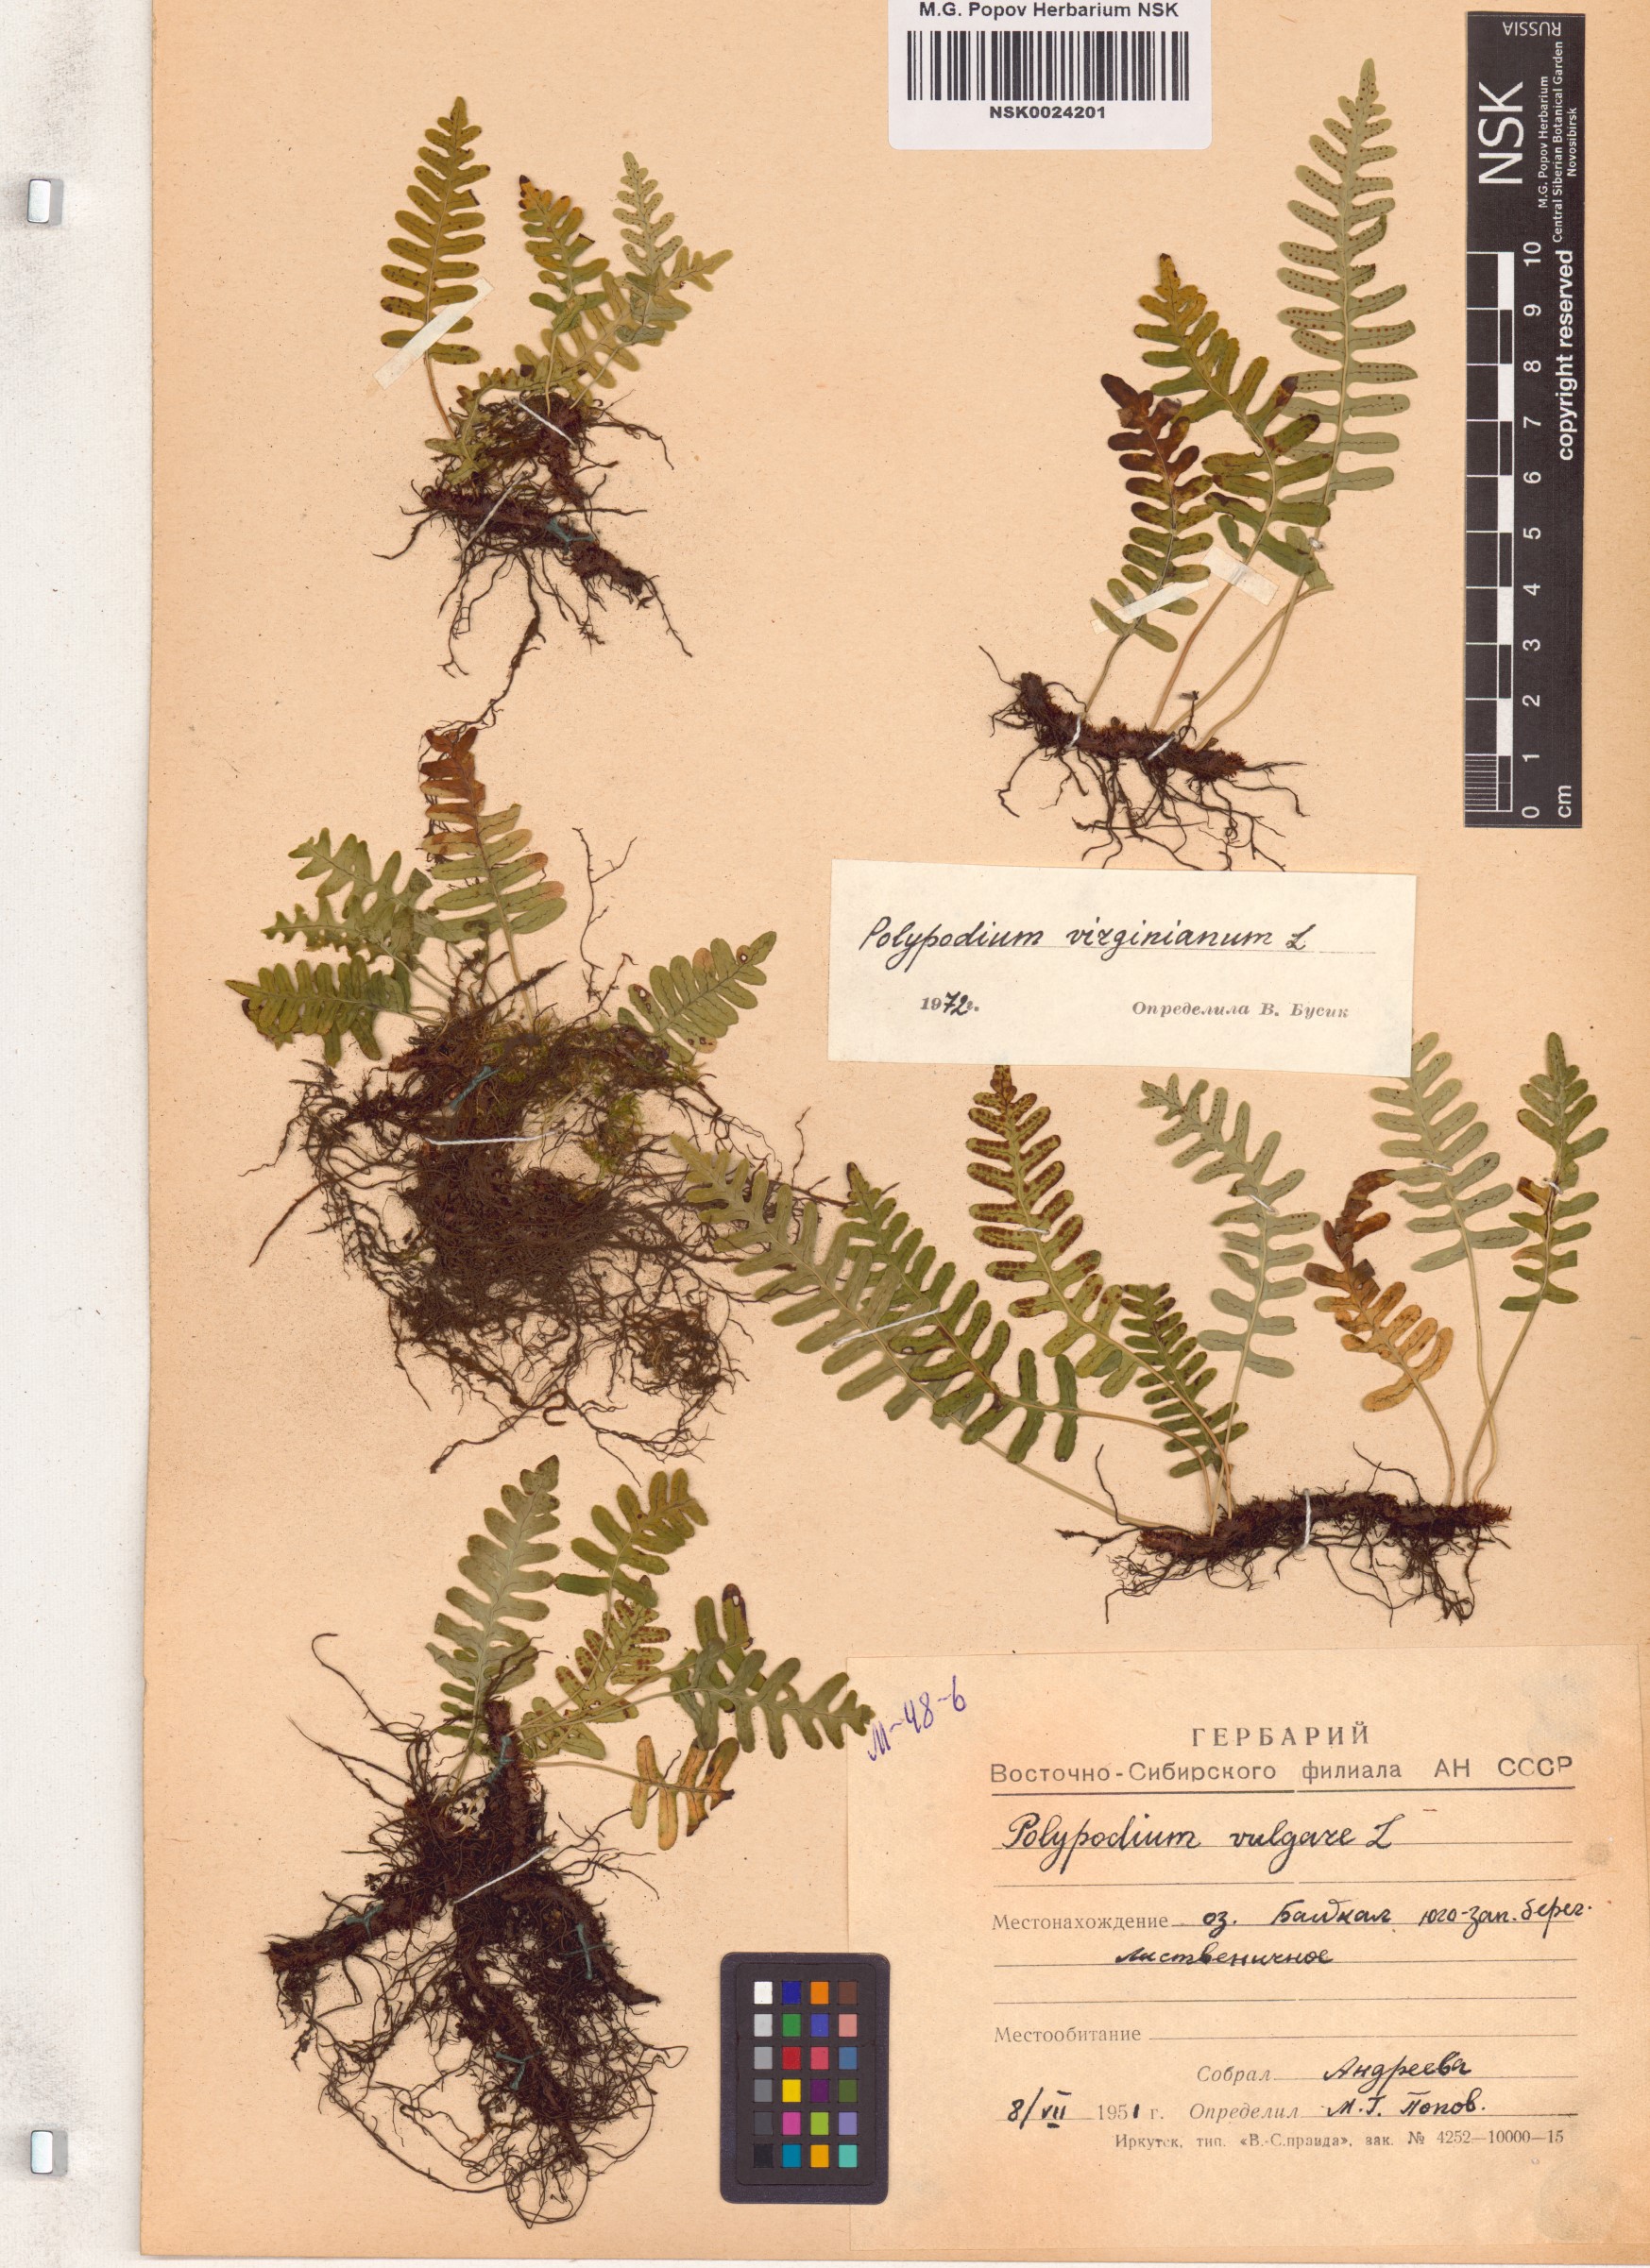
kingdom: Plantae
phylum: Tracheophyta
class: Polypodiopsida
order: Polypodiales
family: Polypodiaceae
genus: Polypodium
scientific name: Polypodium virginianum
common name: American wall fern
